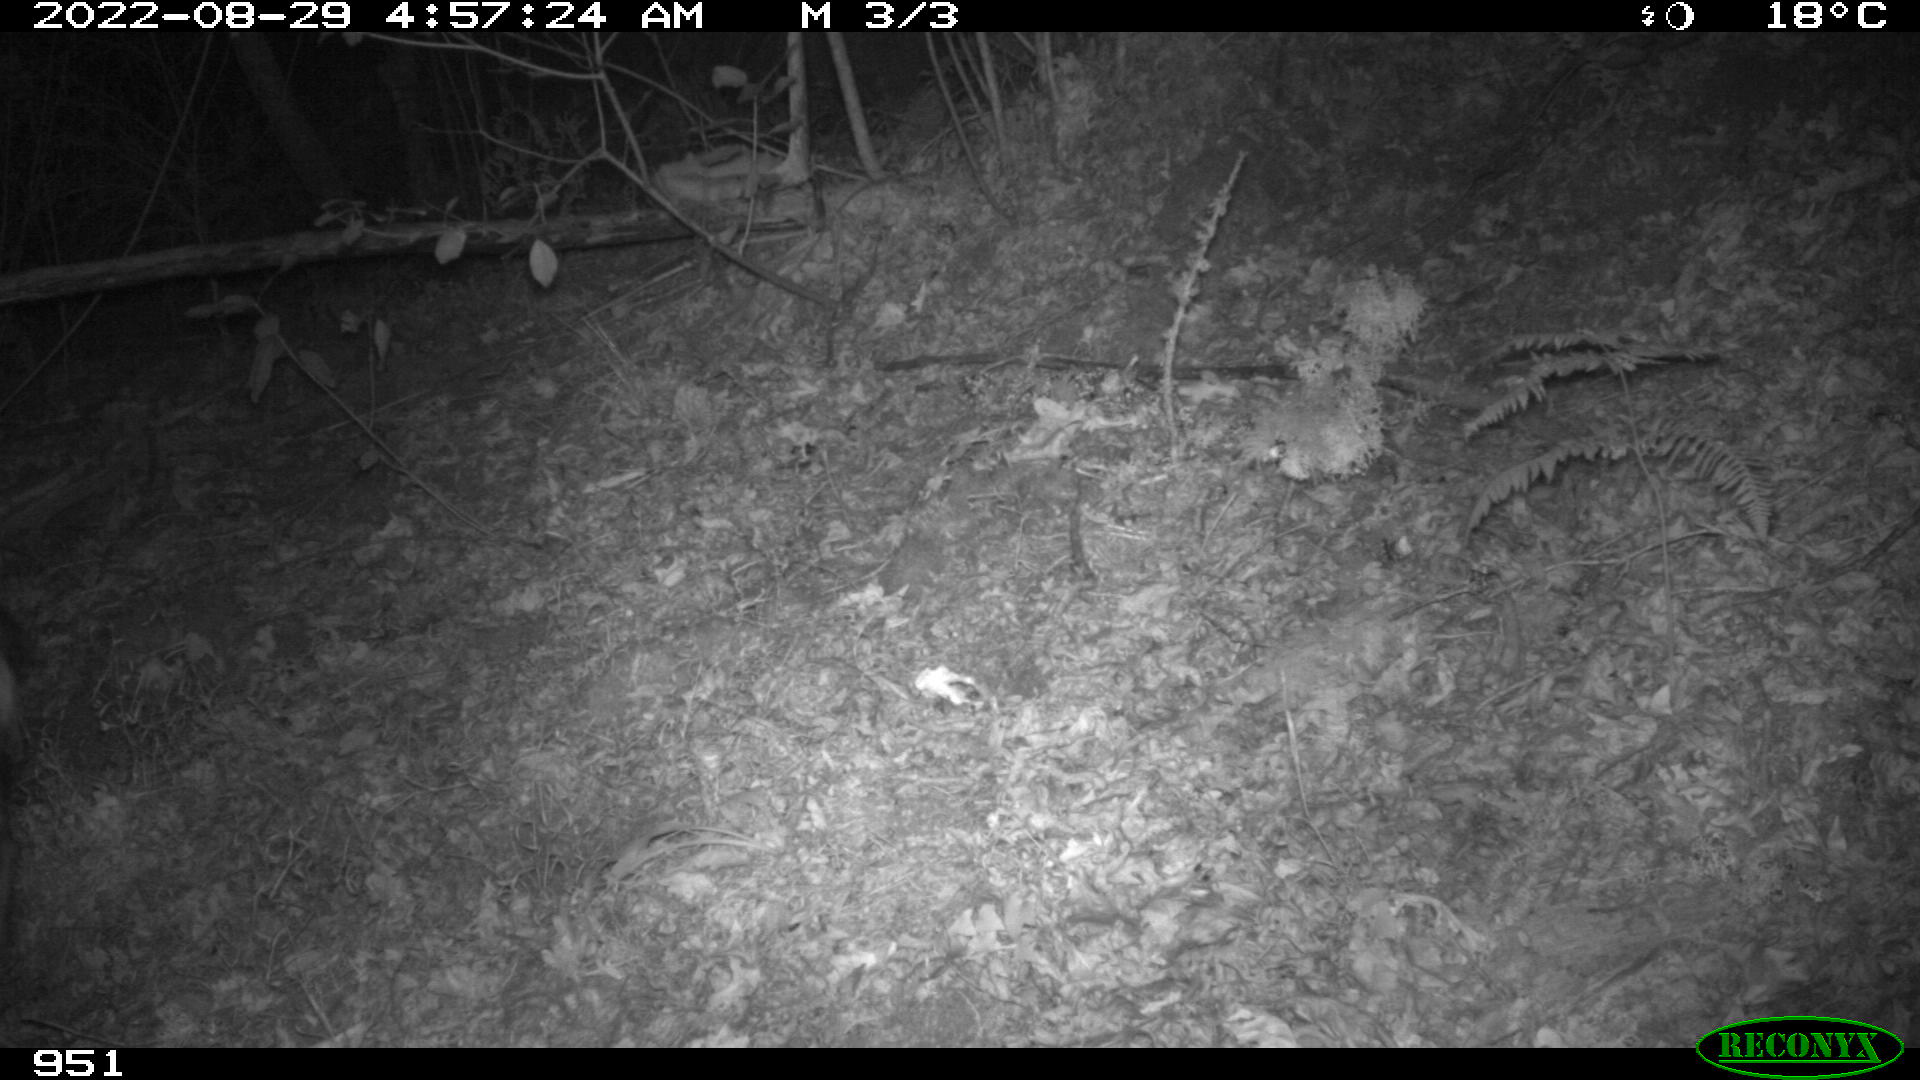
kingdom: Animalia
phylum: Chordata
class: Mammalia
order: Artiodactyla
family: Suidae
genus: Sus
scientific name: Sus scrofa
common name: Wild boar
